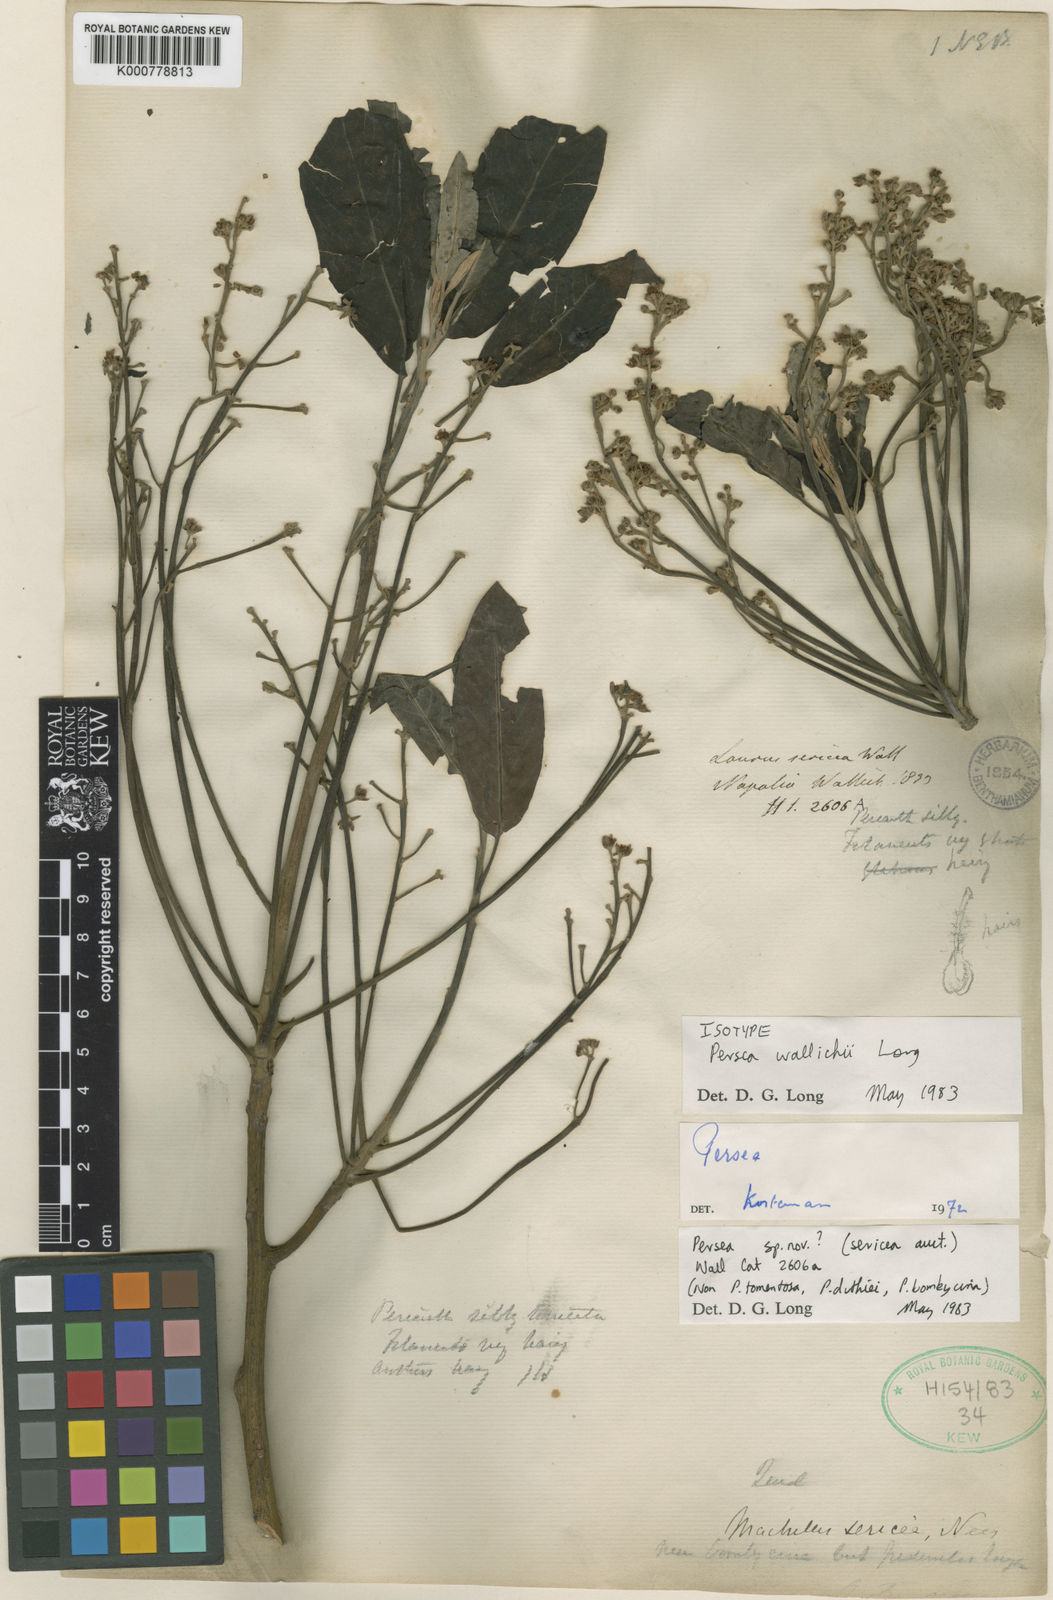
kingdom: Plantae
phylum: Tracheophyta
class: Magnoliopsida
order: Laurales
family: Lauraceae
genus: Persea
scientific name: Persea sericea
